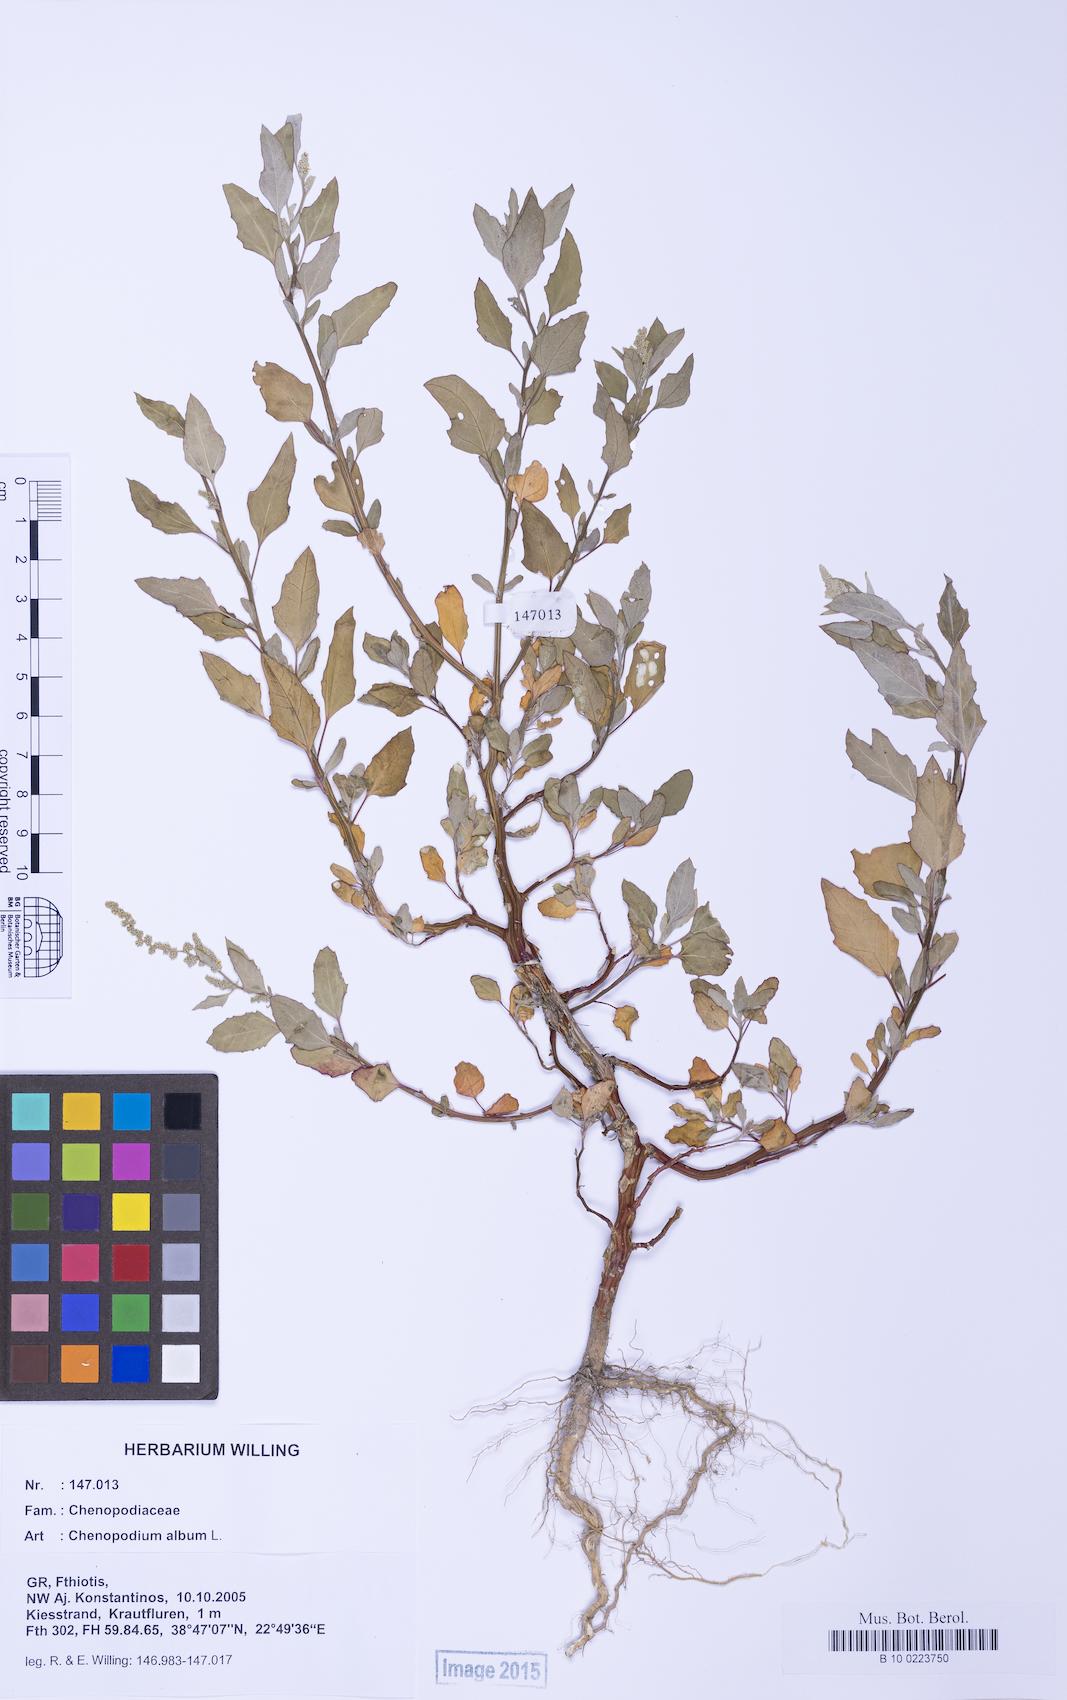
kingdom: Plantae
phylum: Tracheophyta
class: Magnoliopsida
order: Caryophyllales
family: Amaranthaceae
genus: Chenopodium
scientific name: Chenopodium album
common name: Fat-hen
